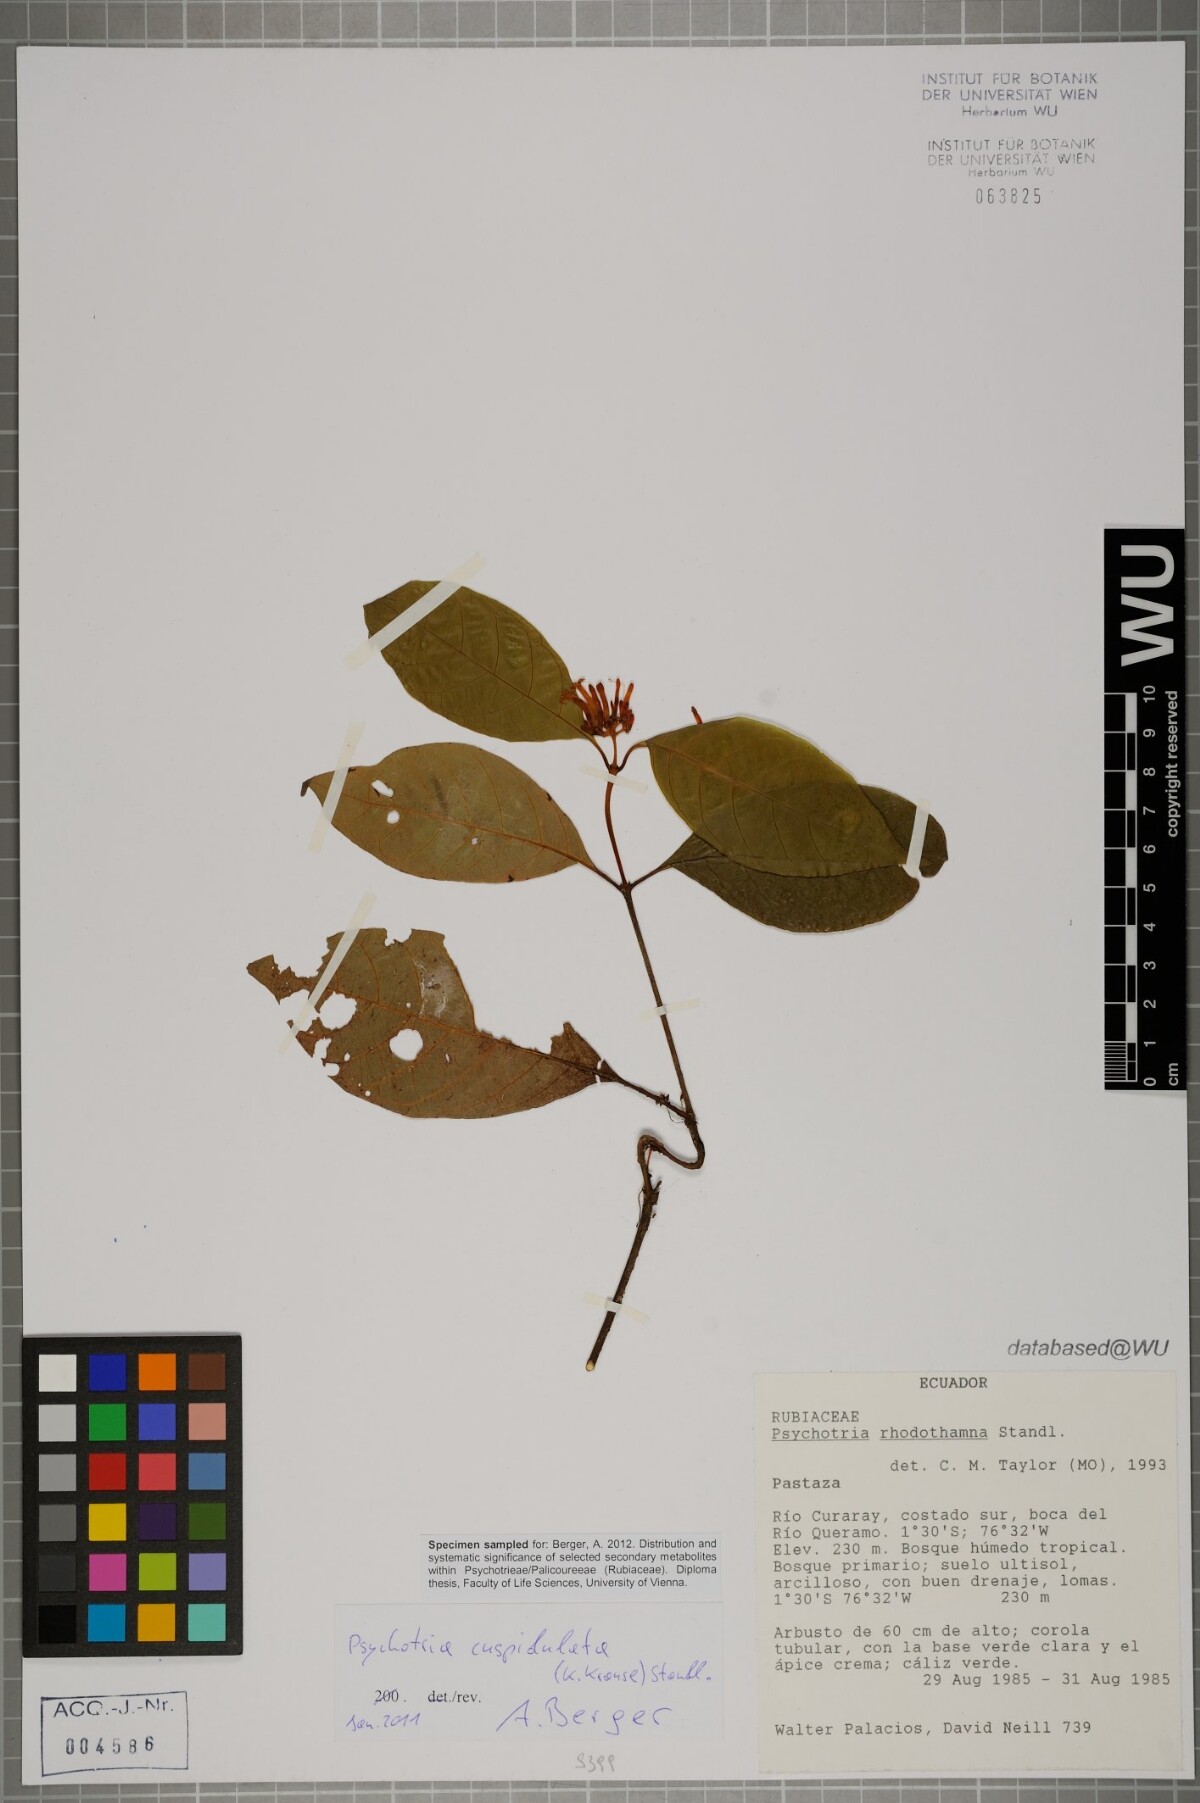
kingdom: Plantae
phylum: Tracheophyta
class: Magnoliopsida
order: Gentianales
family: Rubiaceae
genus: Palicourea
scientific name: Palicourea rhodothamna
